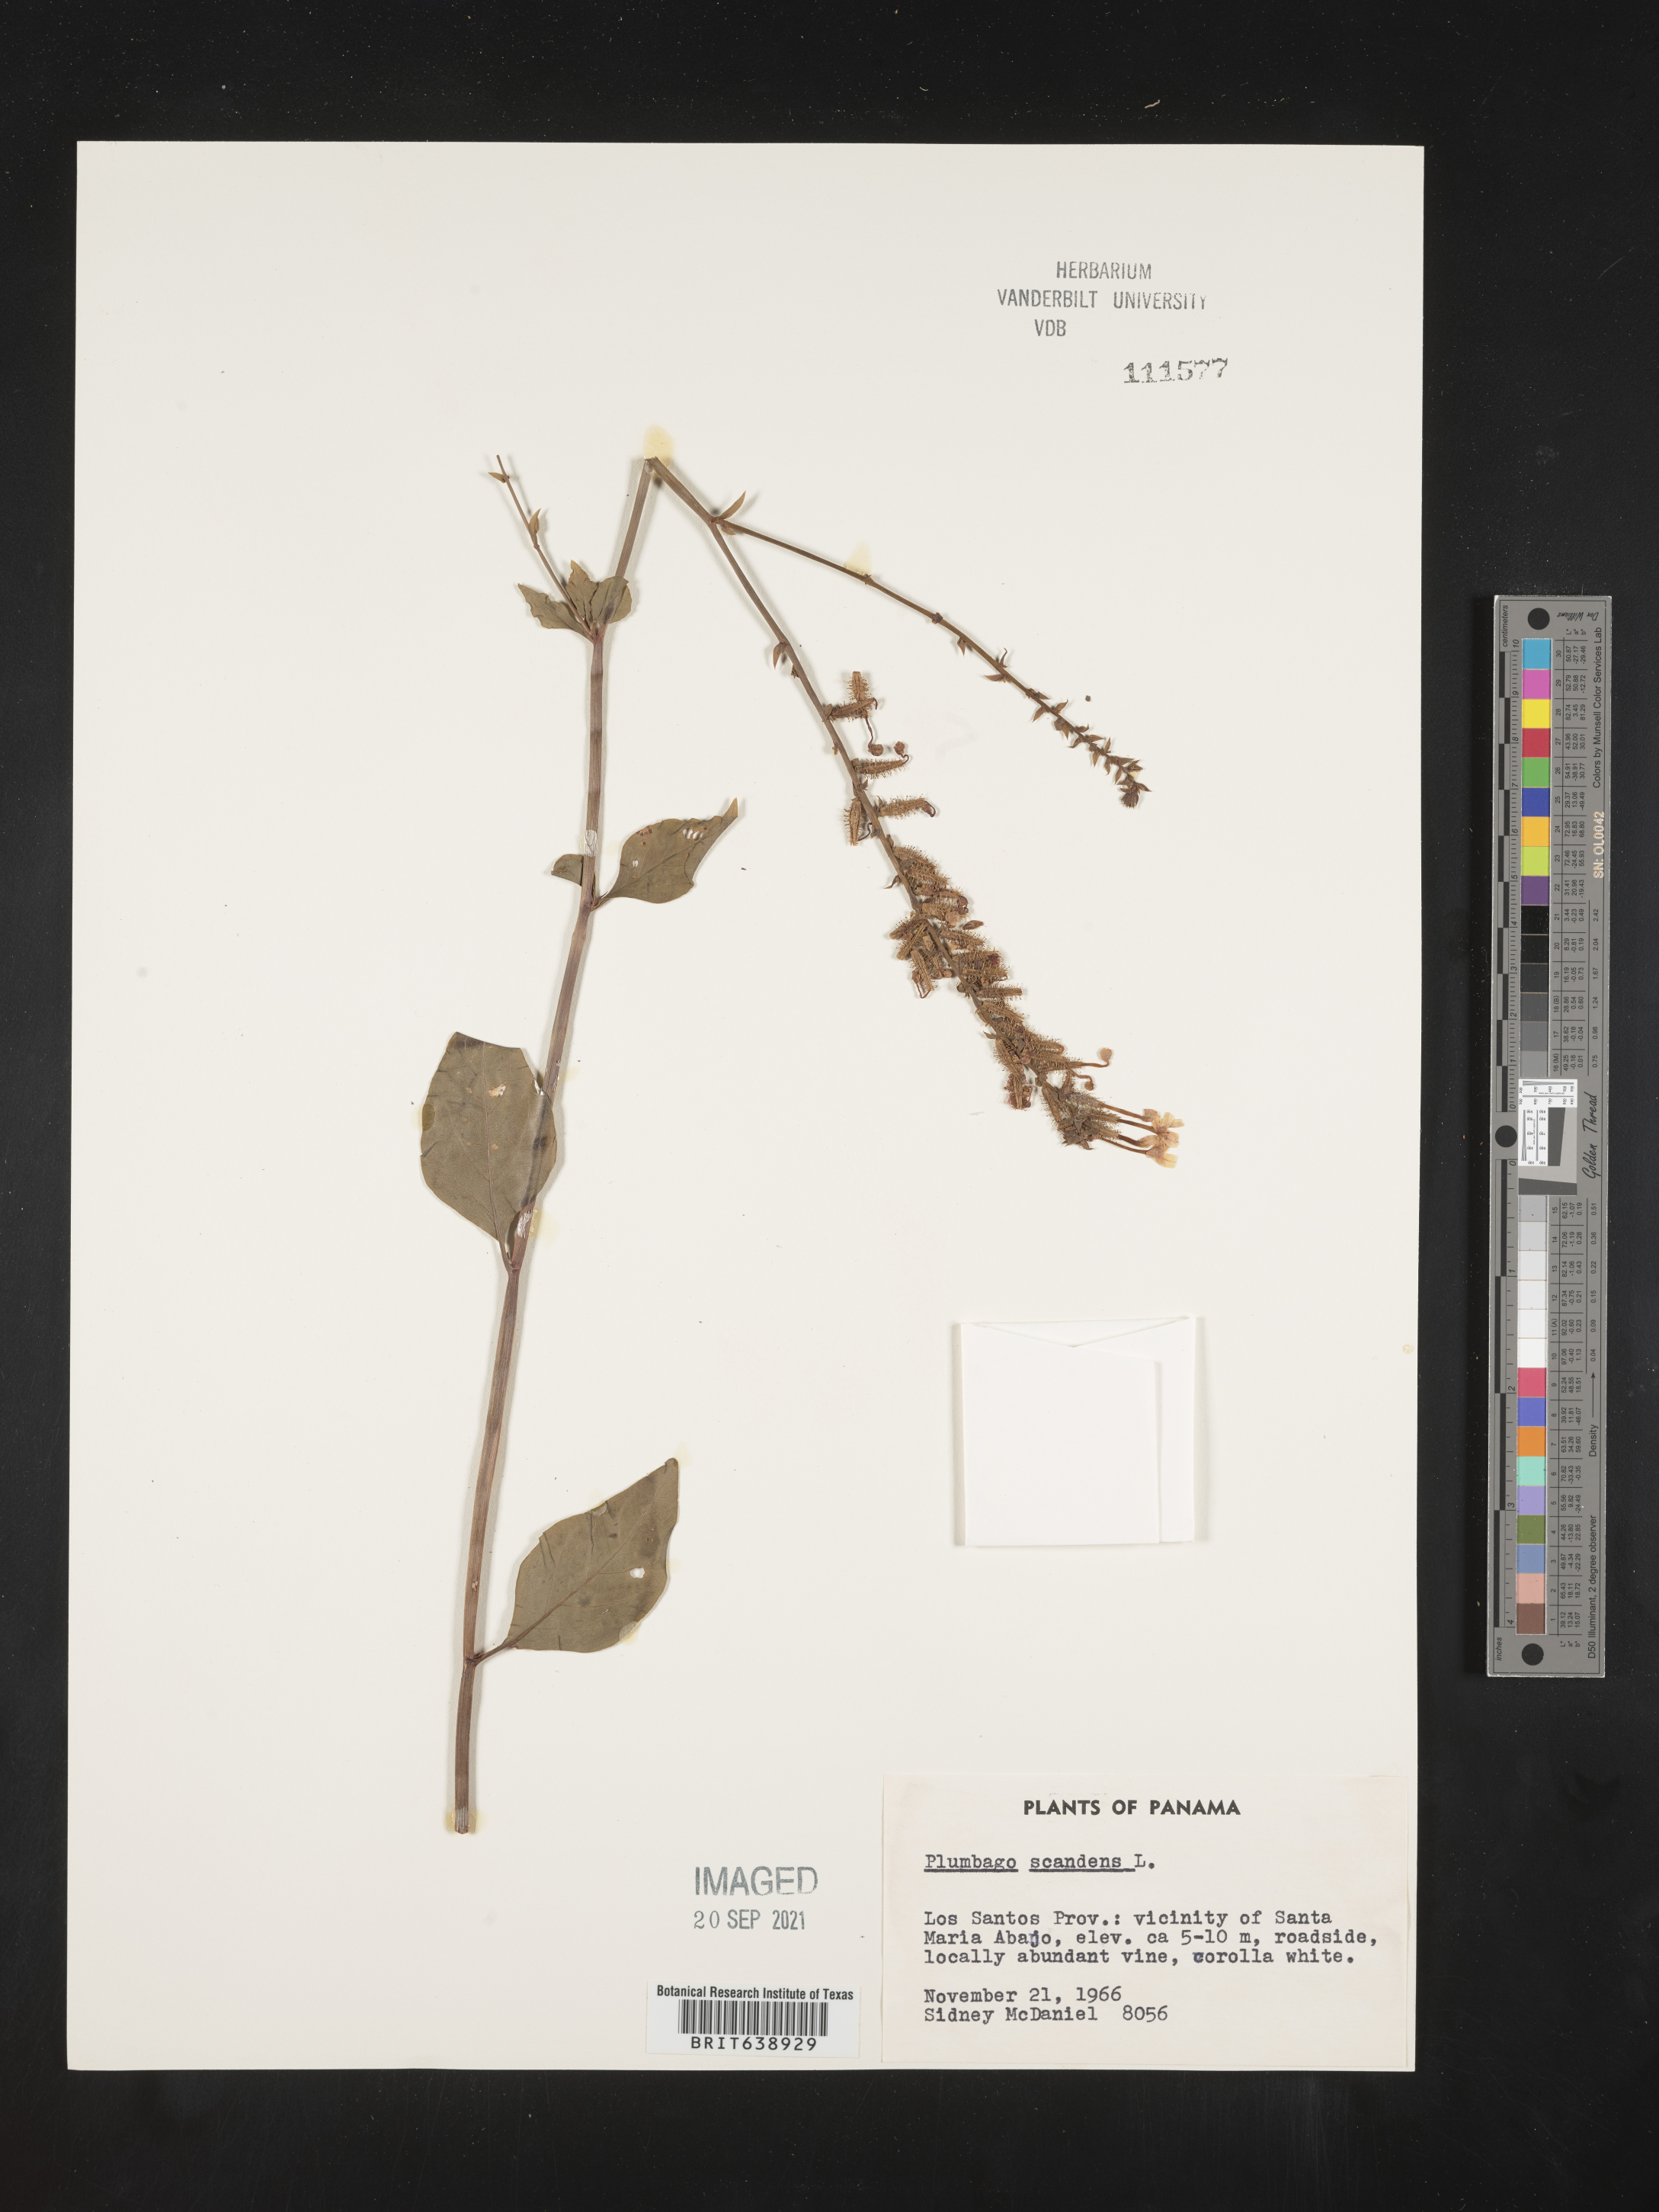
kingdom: Plantae
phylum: Tracheophyta
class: Magnoliopsida
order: Caryophyllales
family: Plumbaginaceae
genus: Plumbago
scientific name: Plumbago
